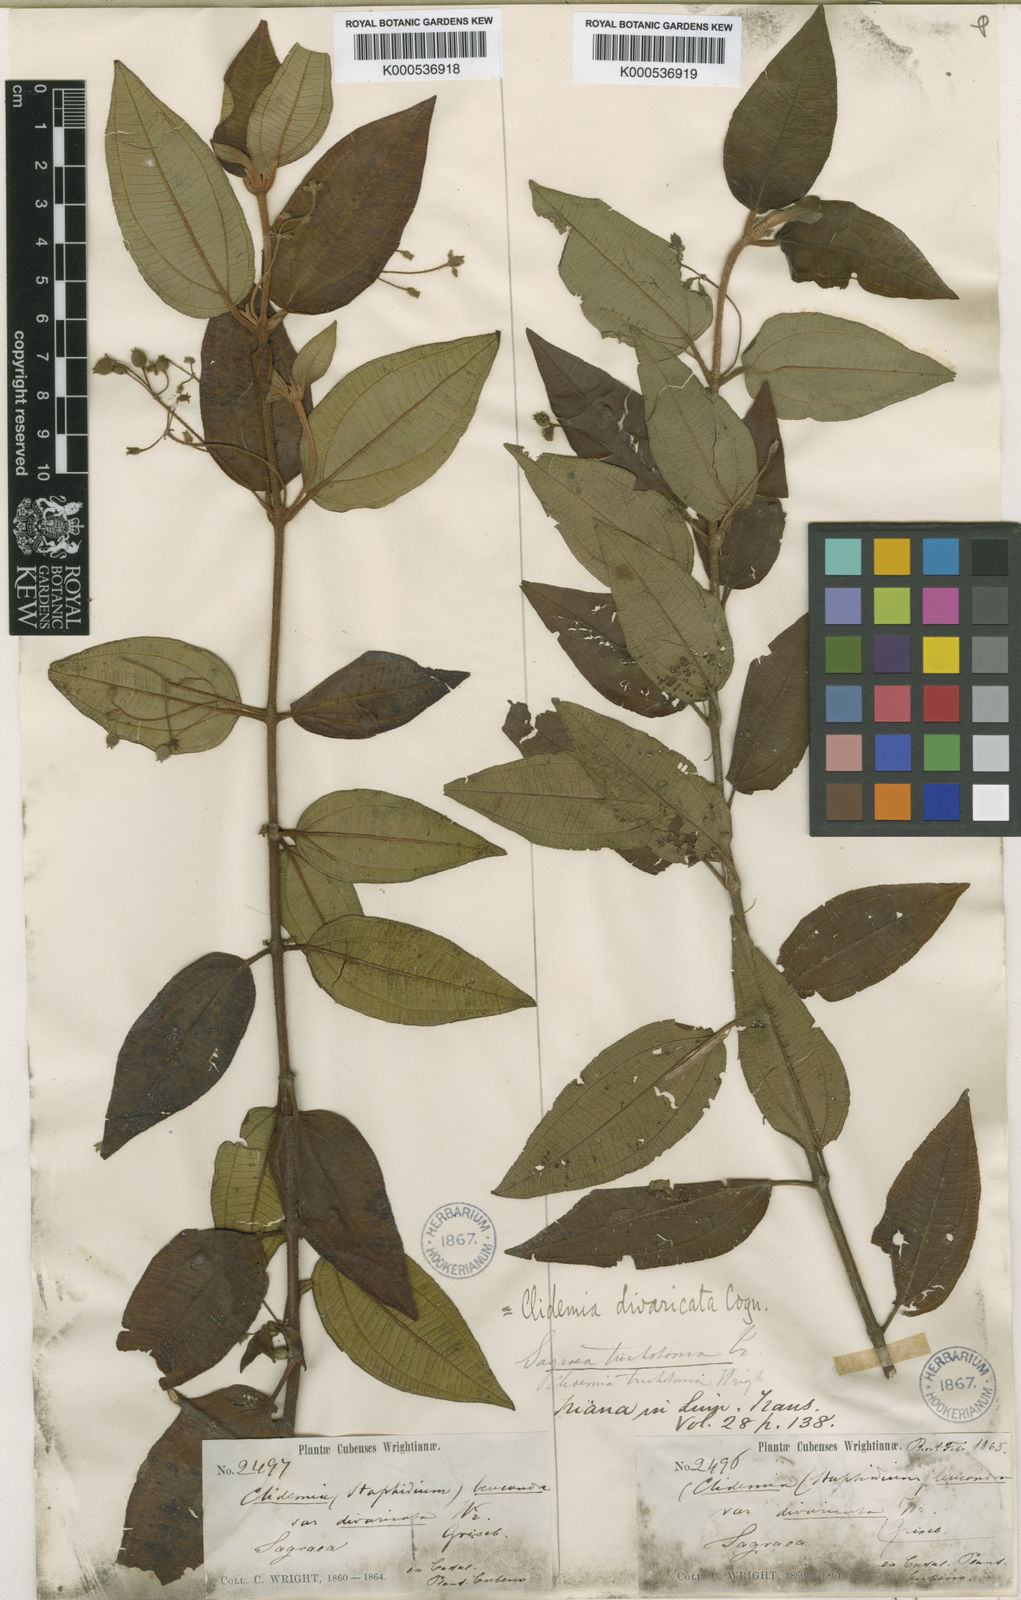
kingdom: Plantae
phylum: Tracheophyta
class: Magnoliopsida
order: Myrtales
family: Melastomataceae
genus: Miconia
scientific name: Miconia divaricatiflora
